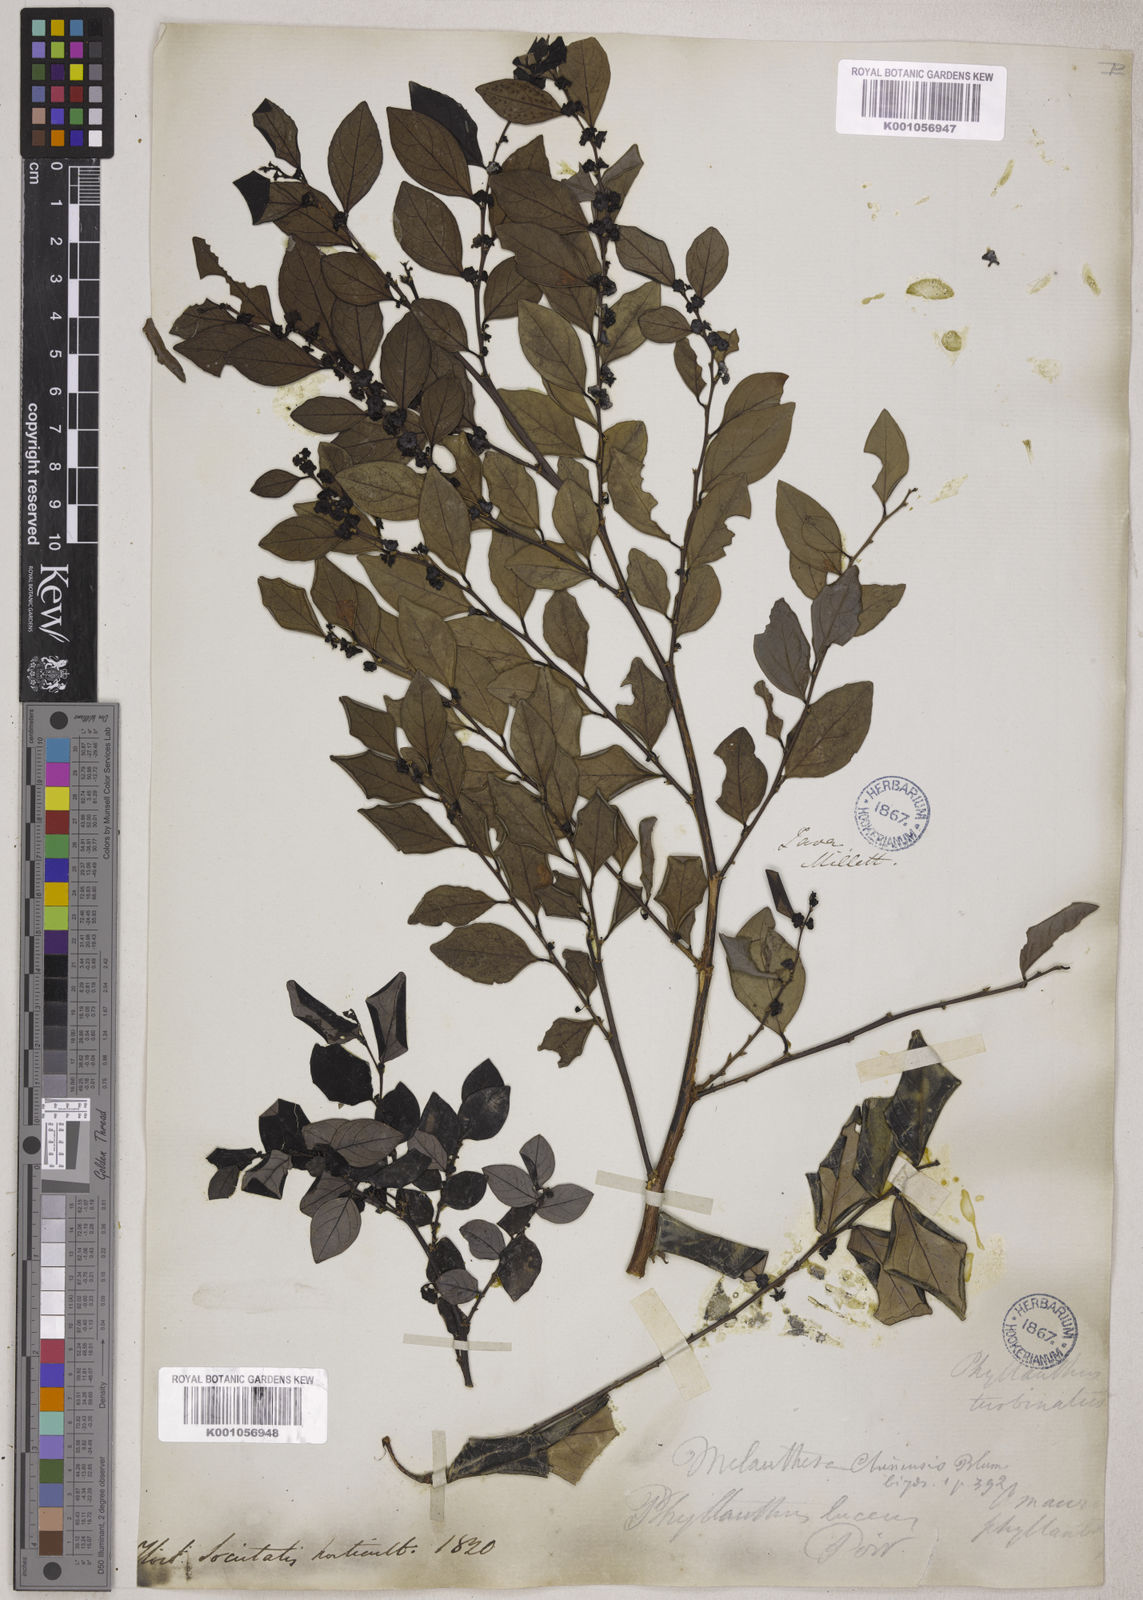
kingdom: Plantae
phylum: Tracheophyta
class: Magnoliopsida
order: Malpighiales
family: Phyllanthaceae
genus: Breynia
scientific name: Breynia
